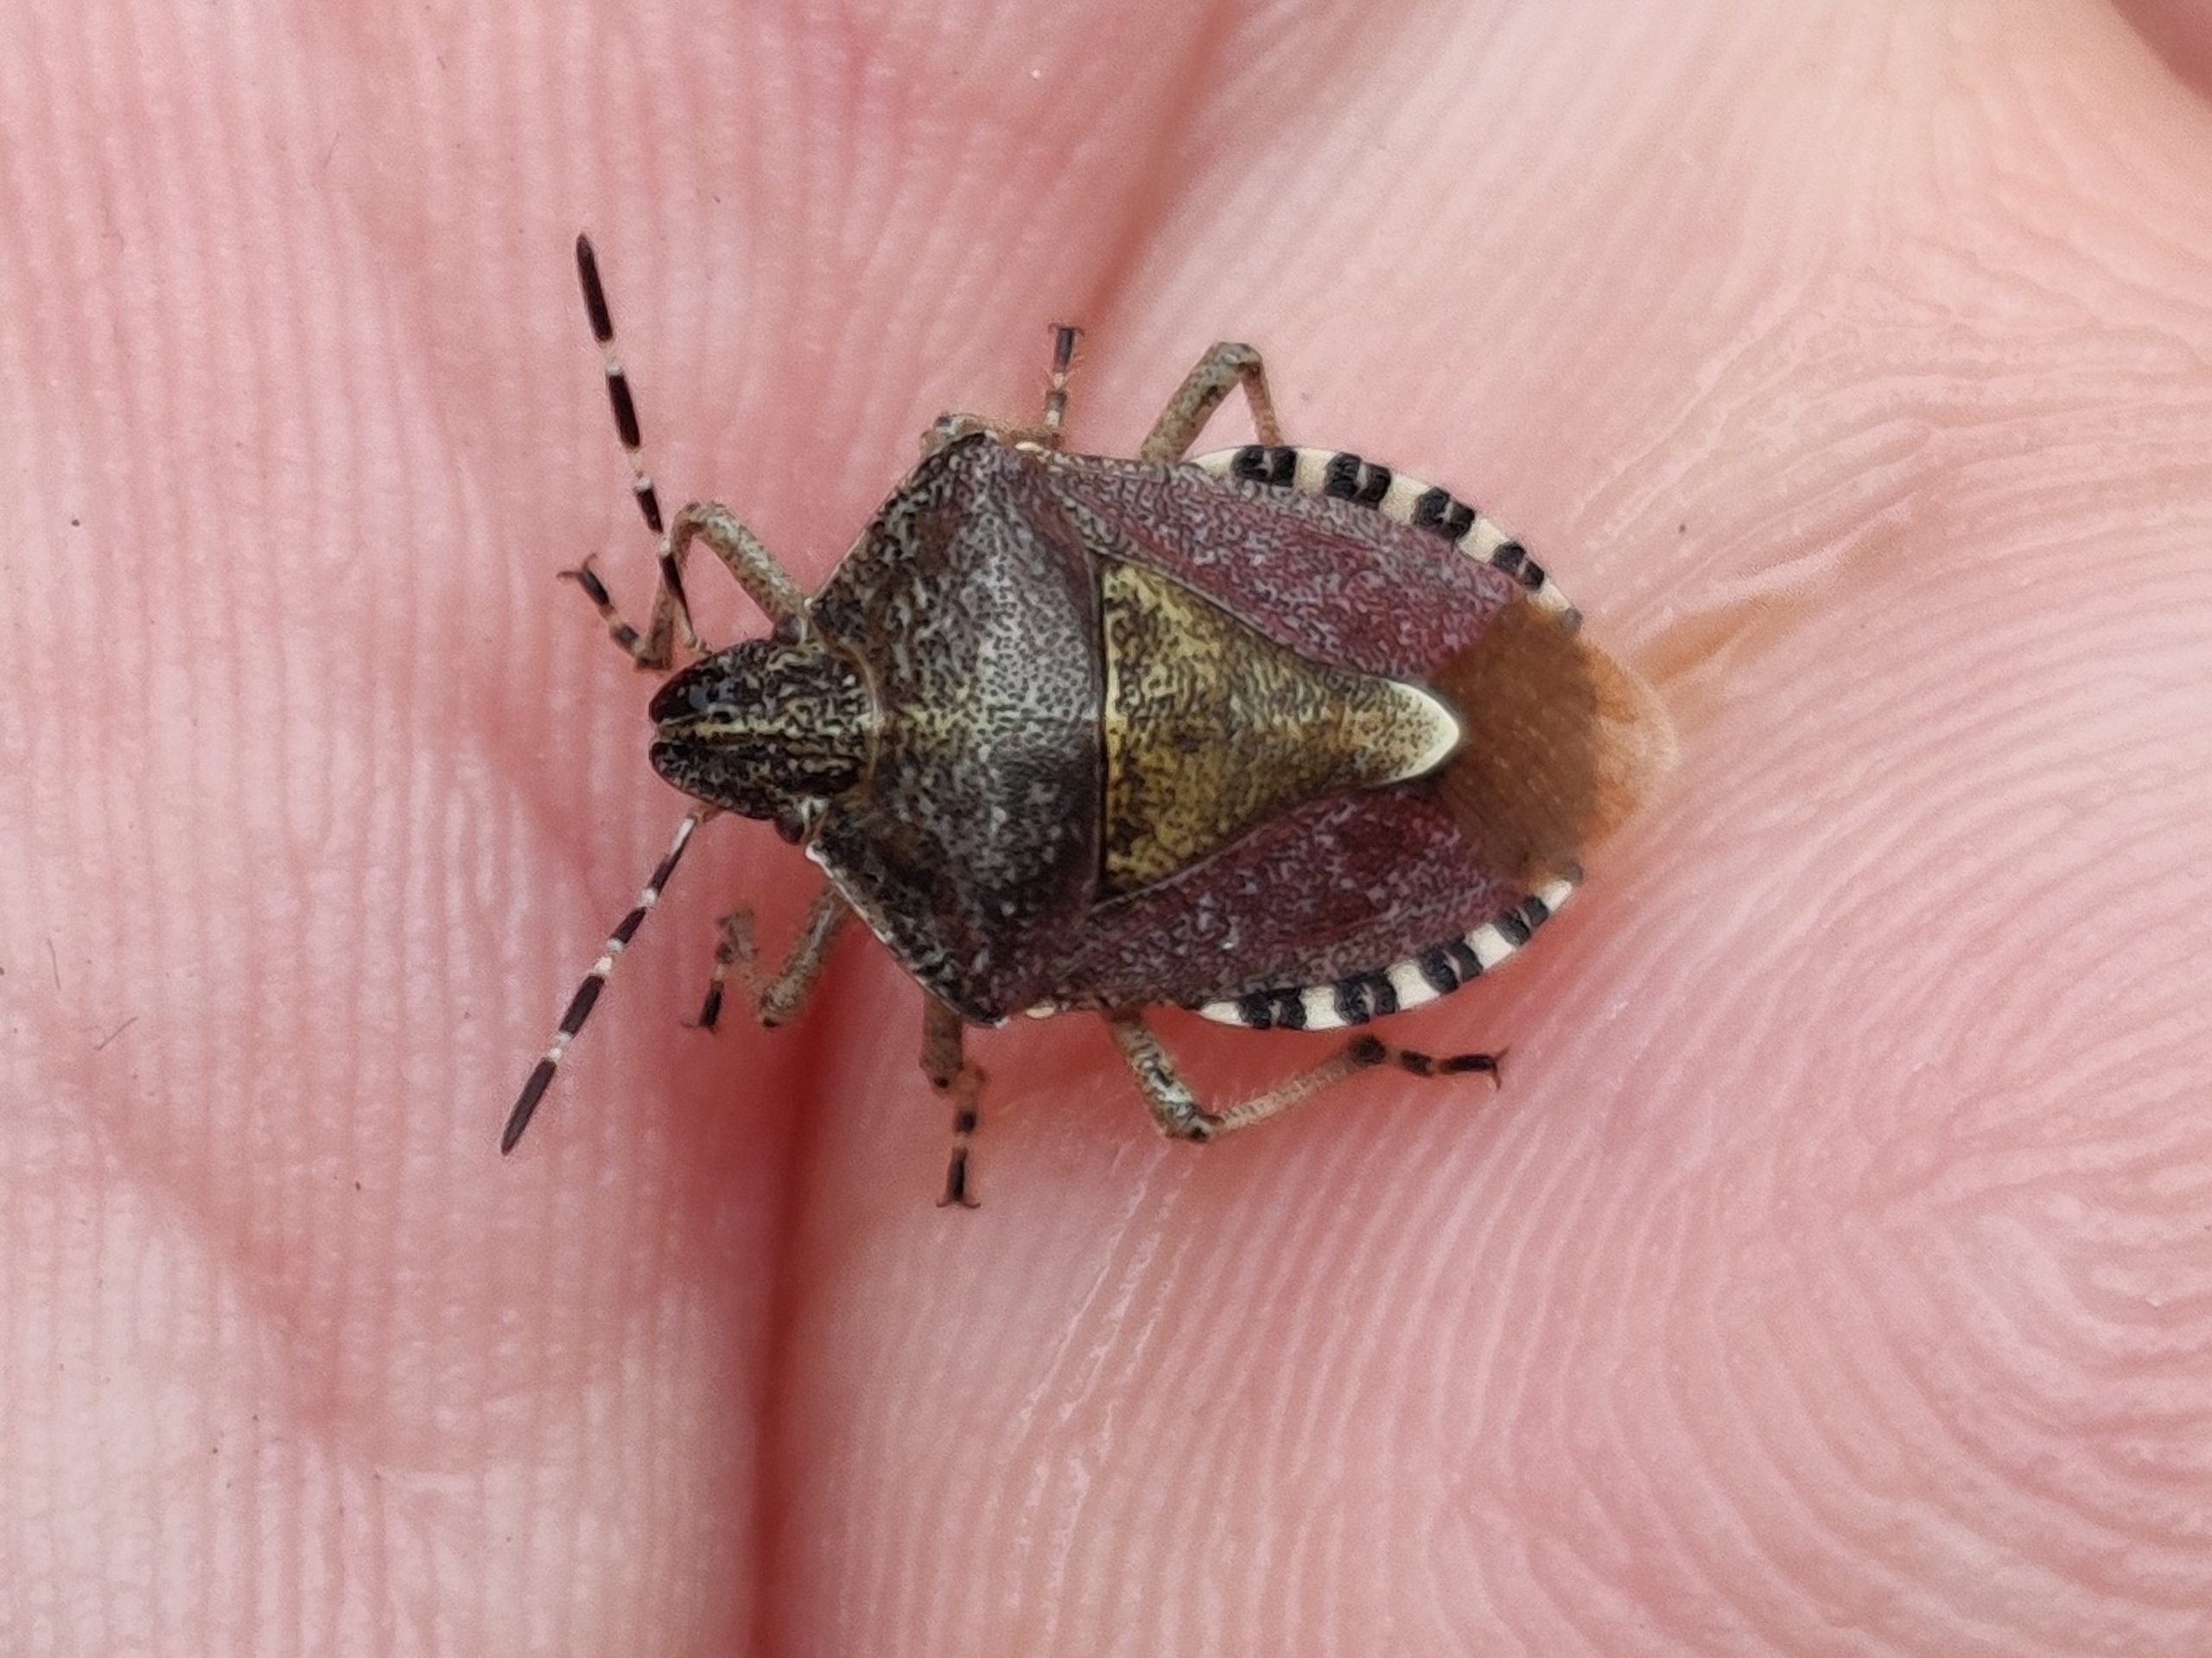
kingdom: Animalia
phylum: Arthropoda
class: Insecta
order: Hemiptera
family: Pentatomidae
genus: Dolycoris
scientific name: Dolycoris baccarum
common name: Almindelig bærtæge
